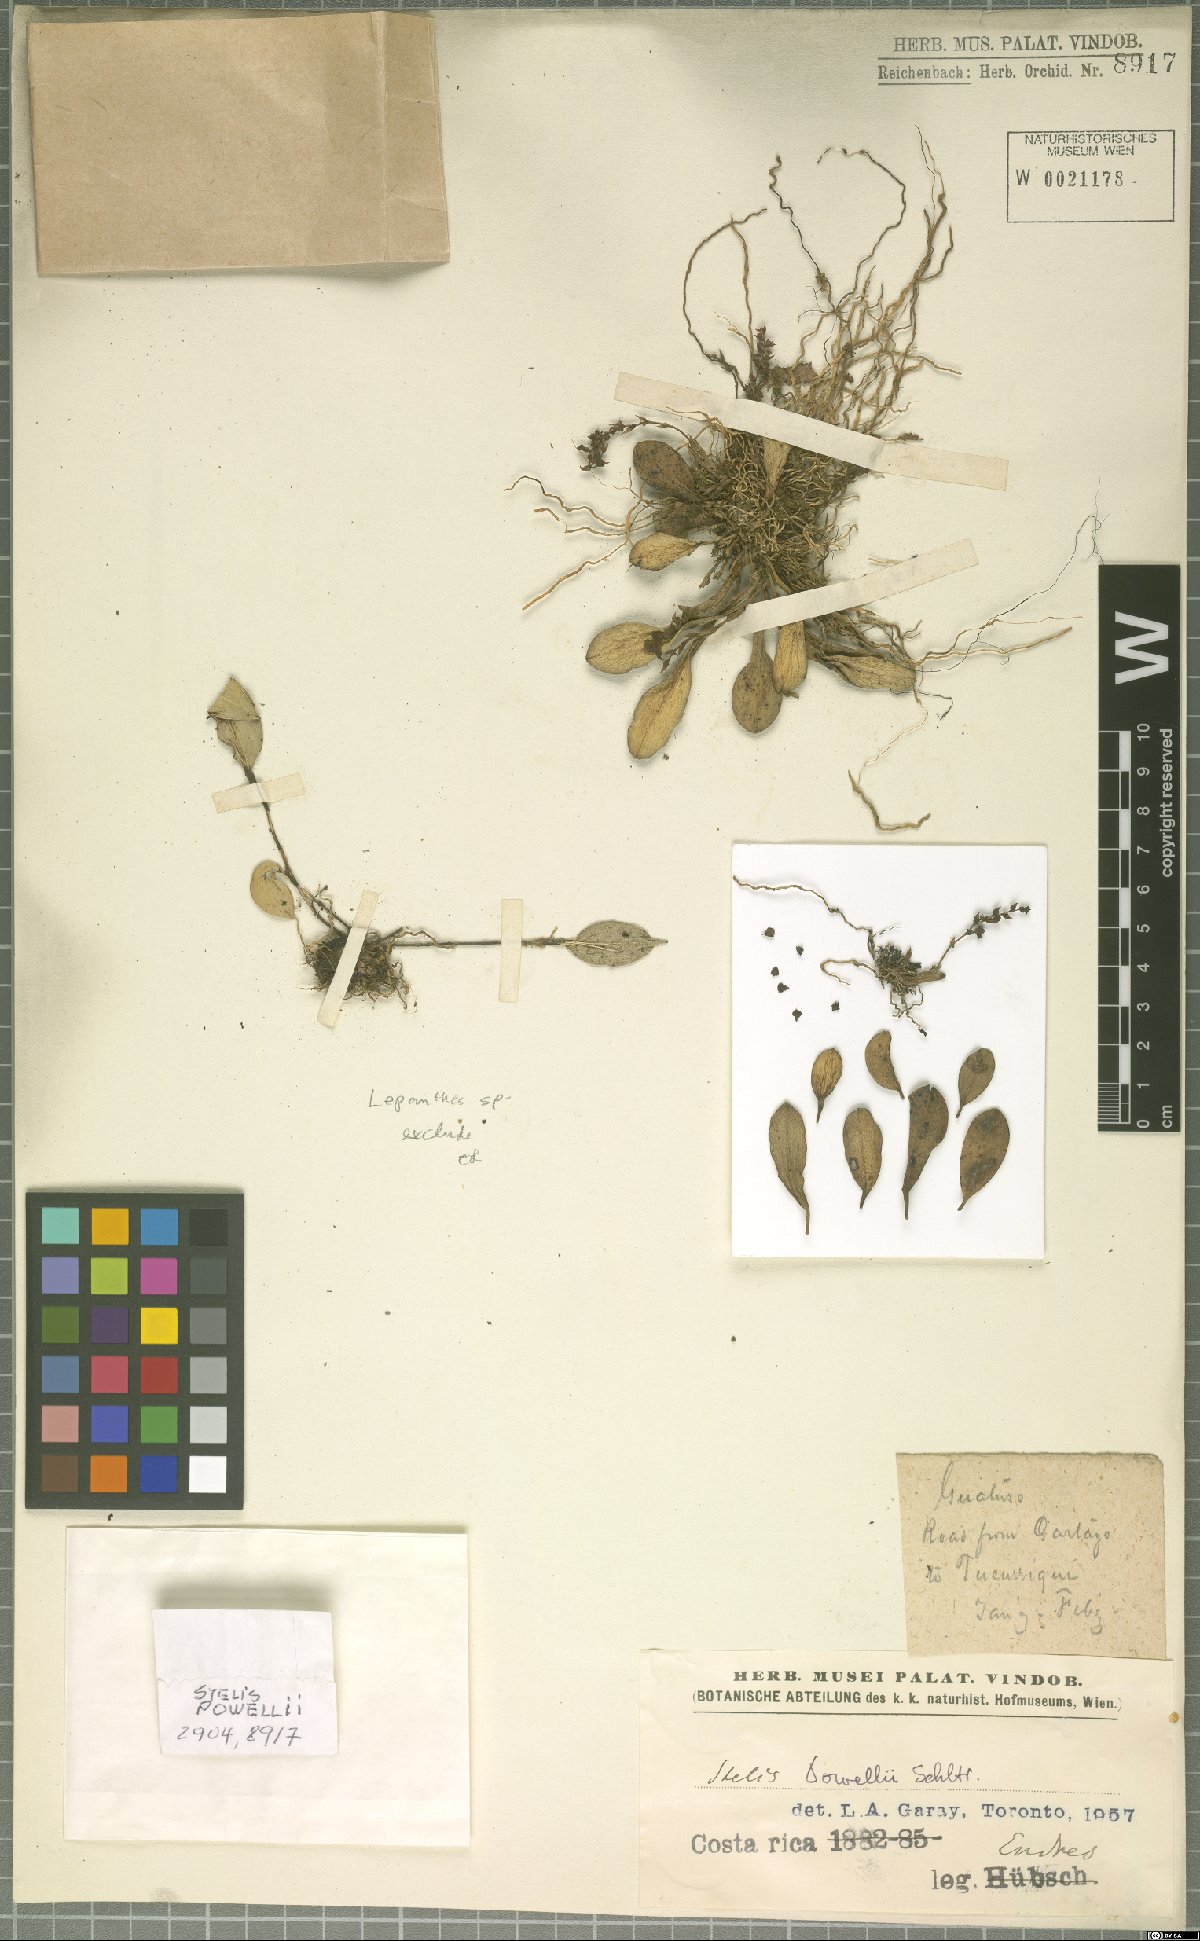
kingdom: Plantae
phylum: Tracheophyta
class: Liliopsida
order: Asparagales
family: Orchidaceae
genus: Stelis
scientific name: Stelis powellii
